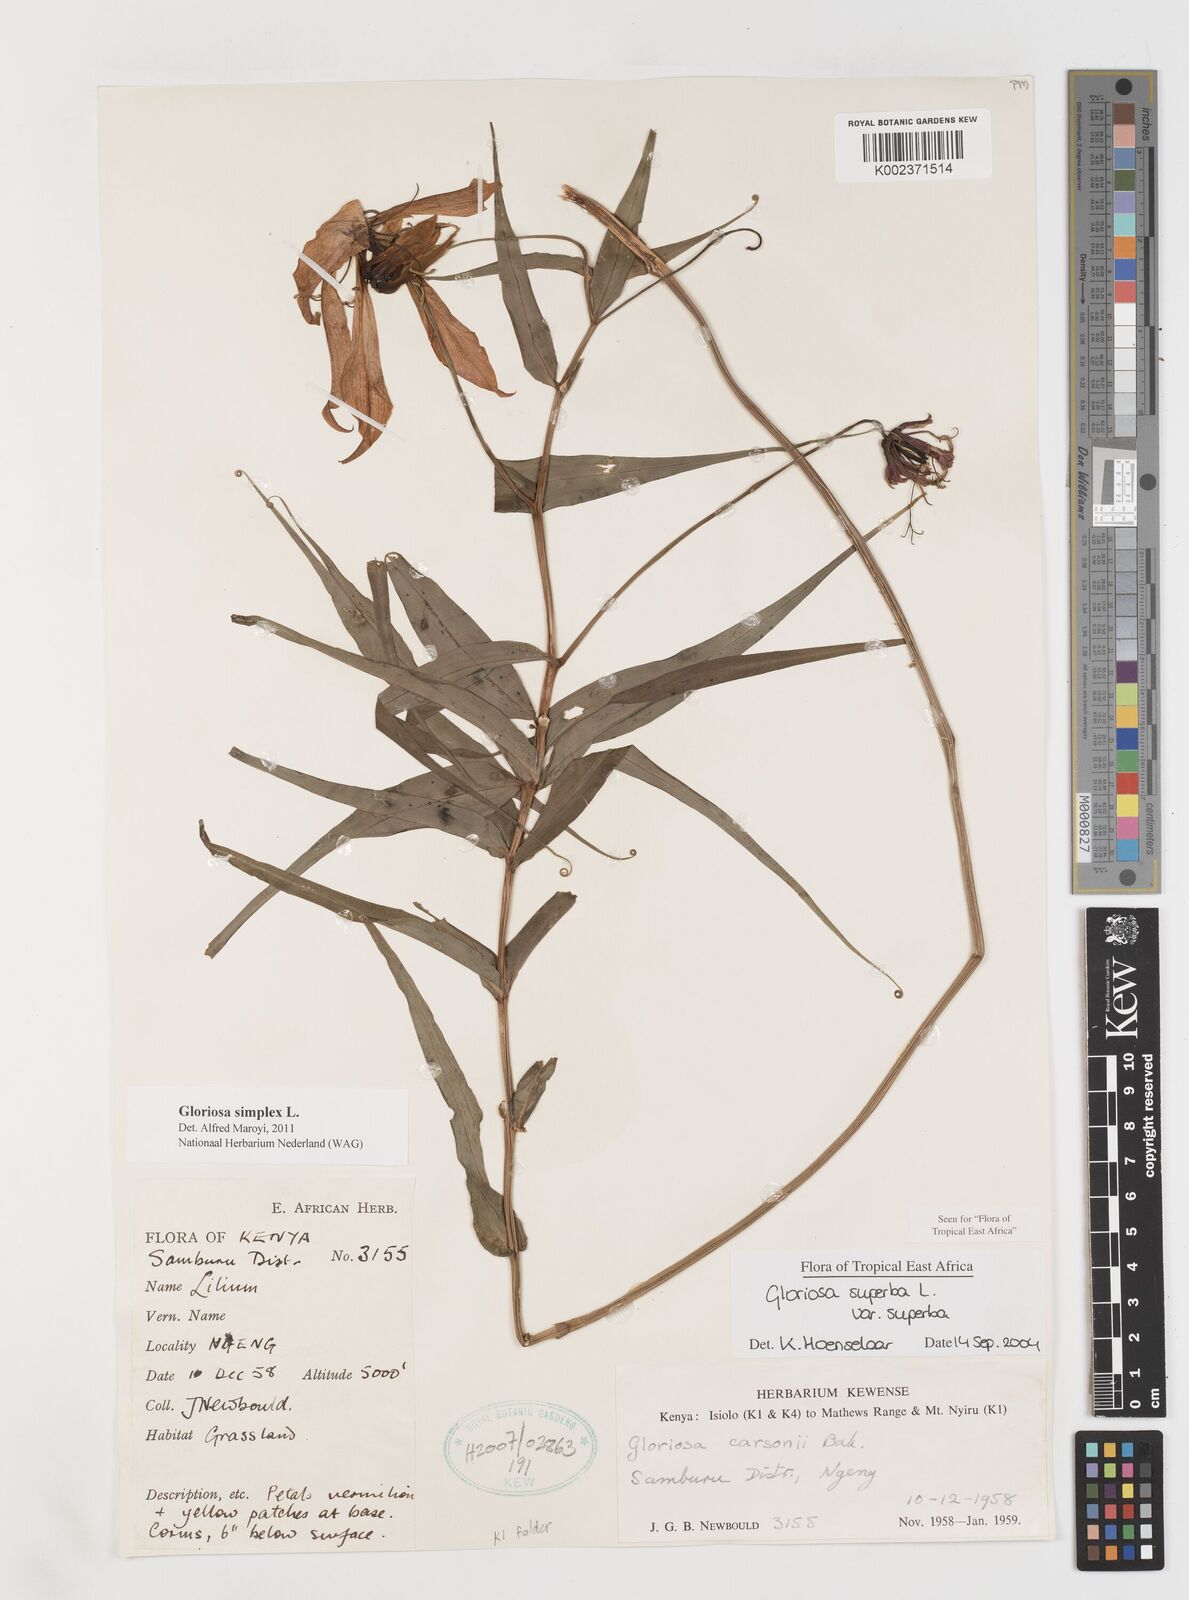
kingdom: Plantae
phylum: Tracheophyta
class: Liliopsida
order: Liliales
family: Colchicaceae
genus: Gloriosa
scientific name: Gloriosa simplex
